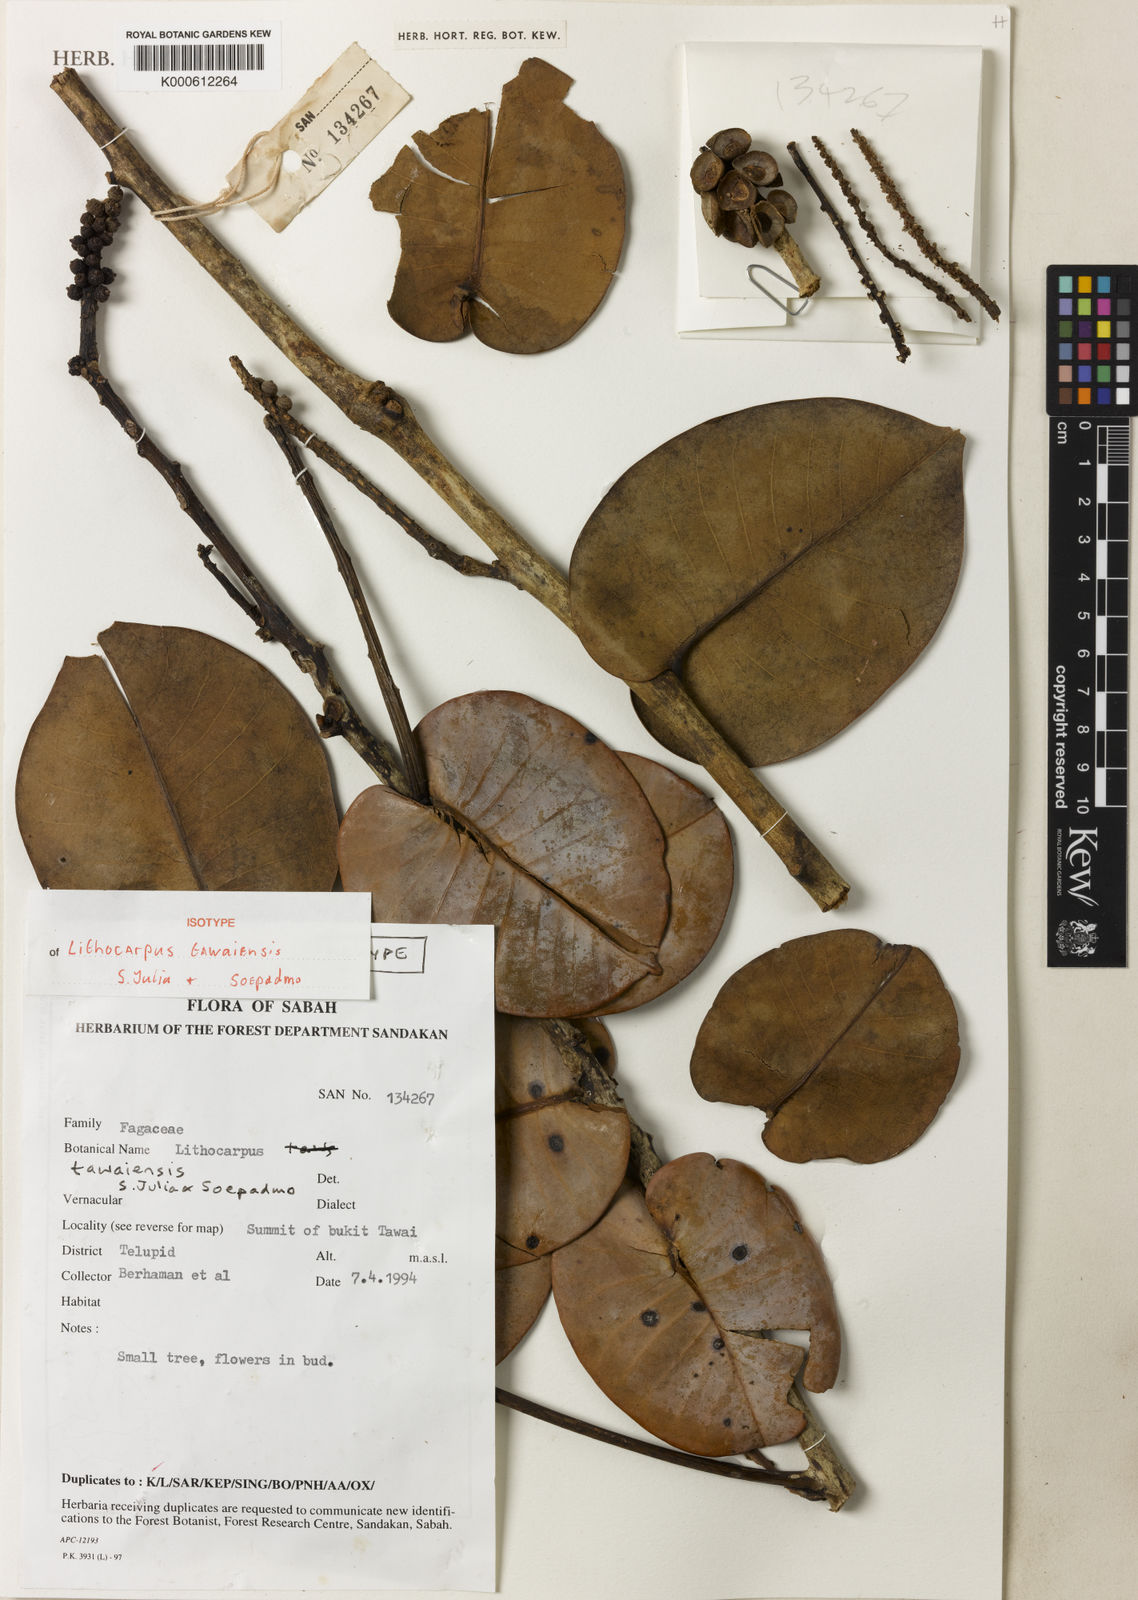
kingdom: Plantae
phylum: Tracheophyta
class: Magnoliopsida
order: Fagales
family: Fagaceae
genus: Lithocarpus
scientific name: Lithocarpus tawaiensis
